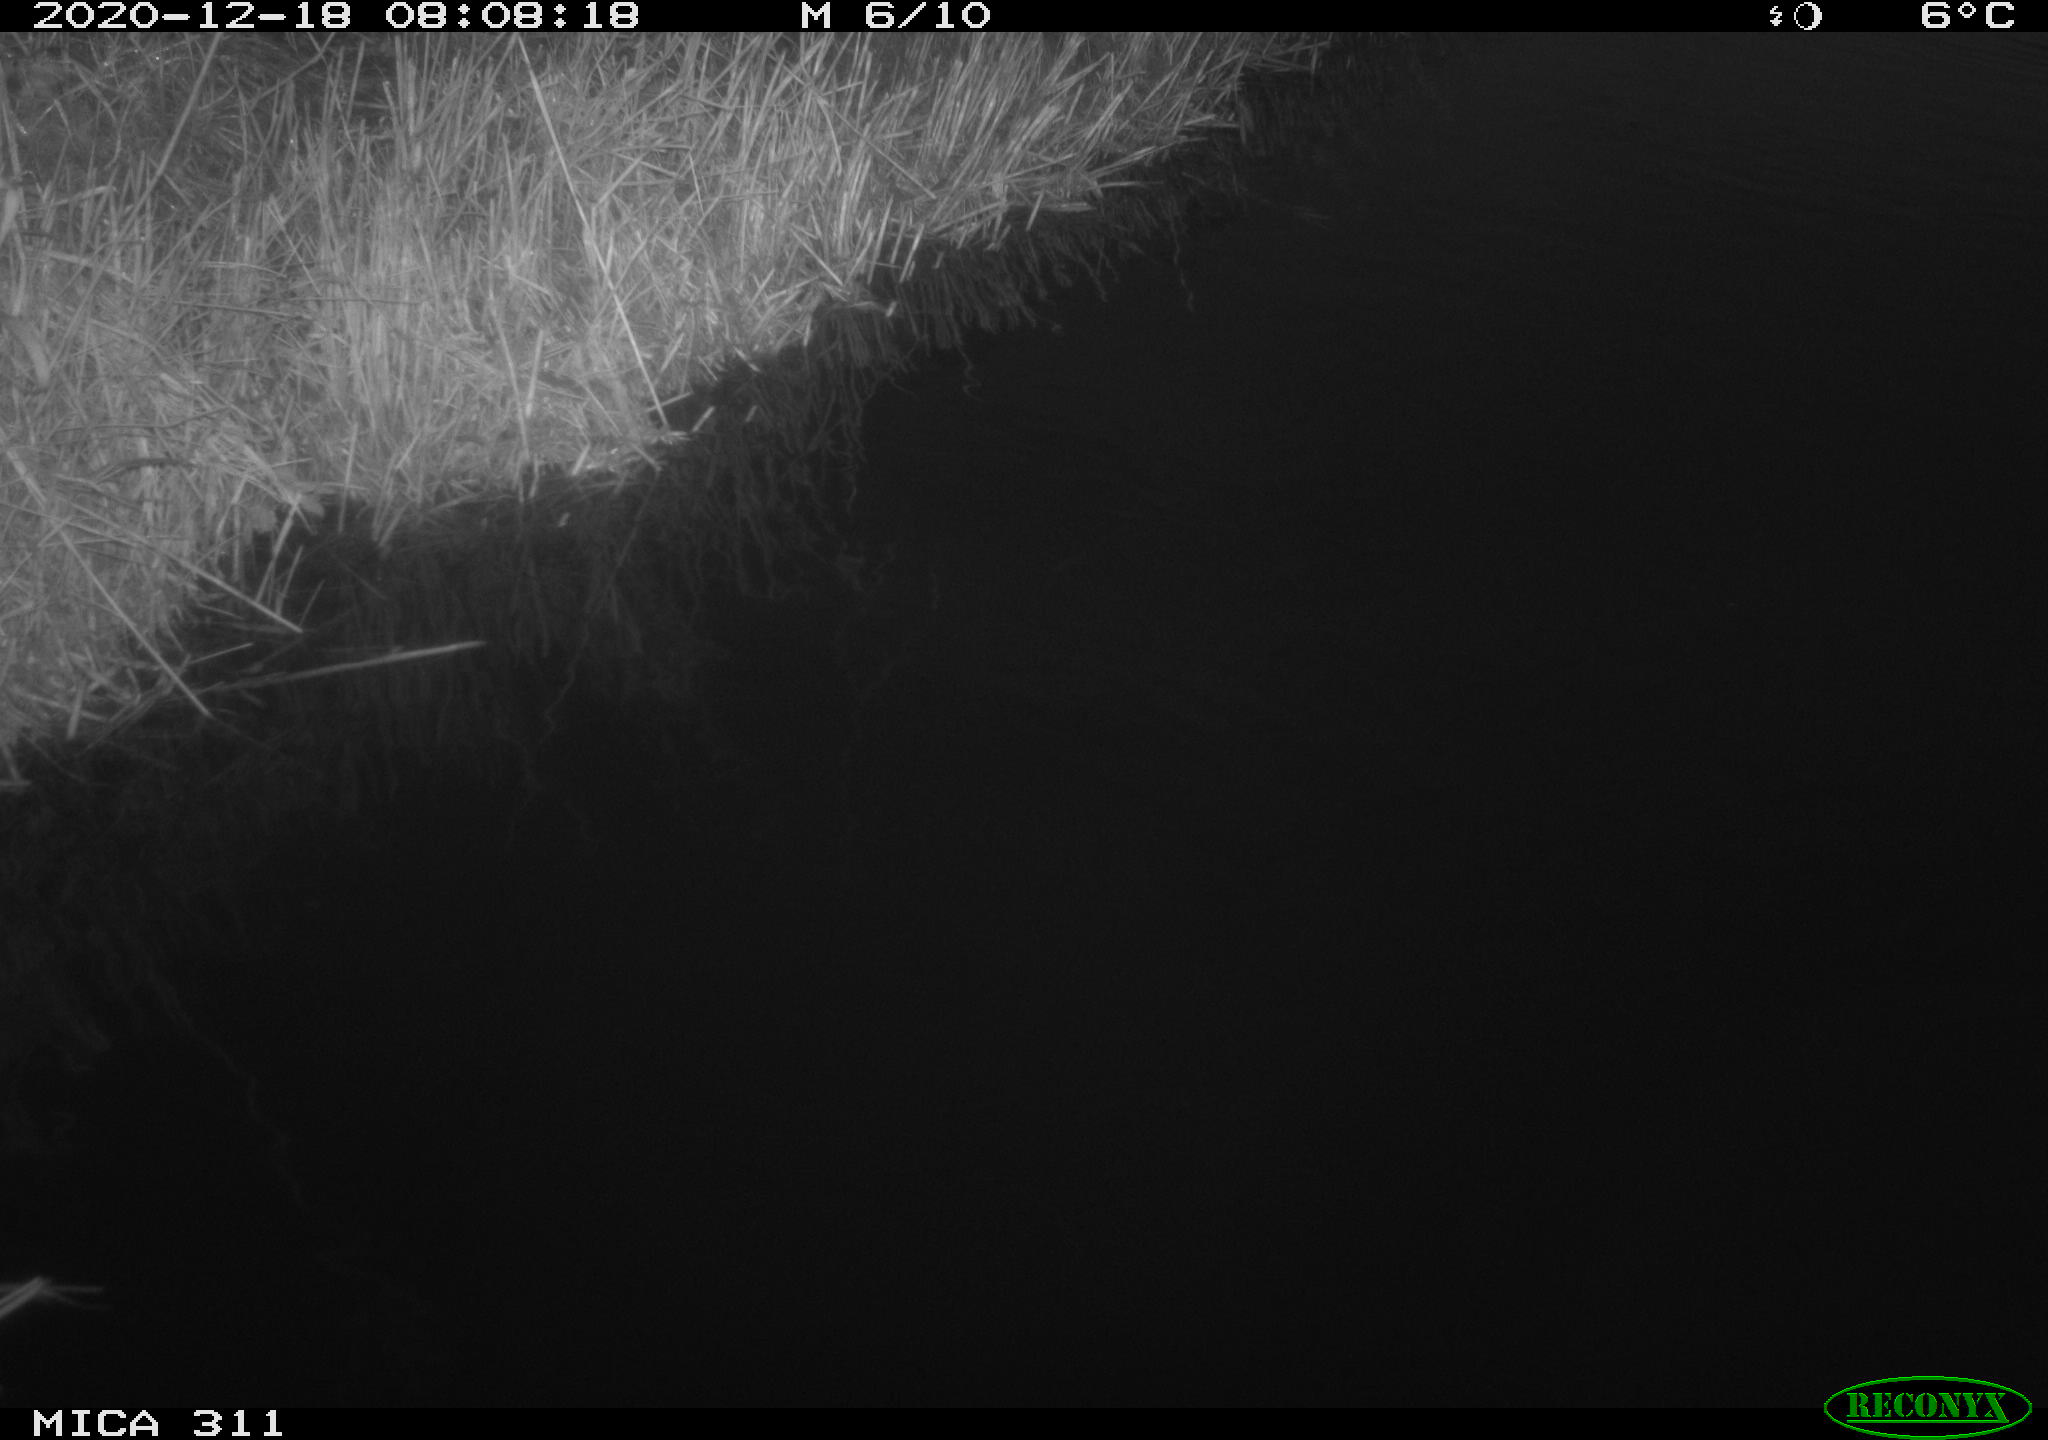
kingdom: Animalia
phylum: Chordata
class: Aves
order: Gruiformes
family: Rallidae
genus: Gallinula
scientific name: Gallinula chloropus
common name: Common moorhen
